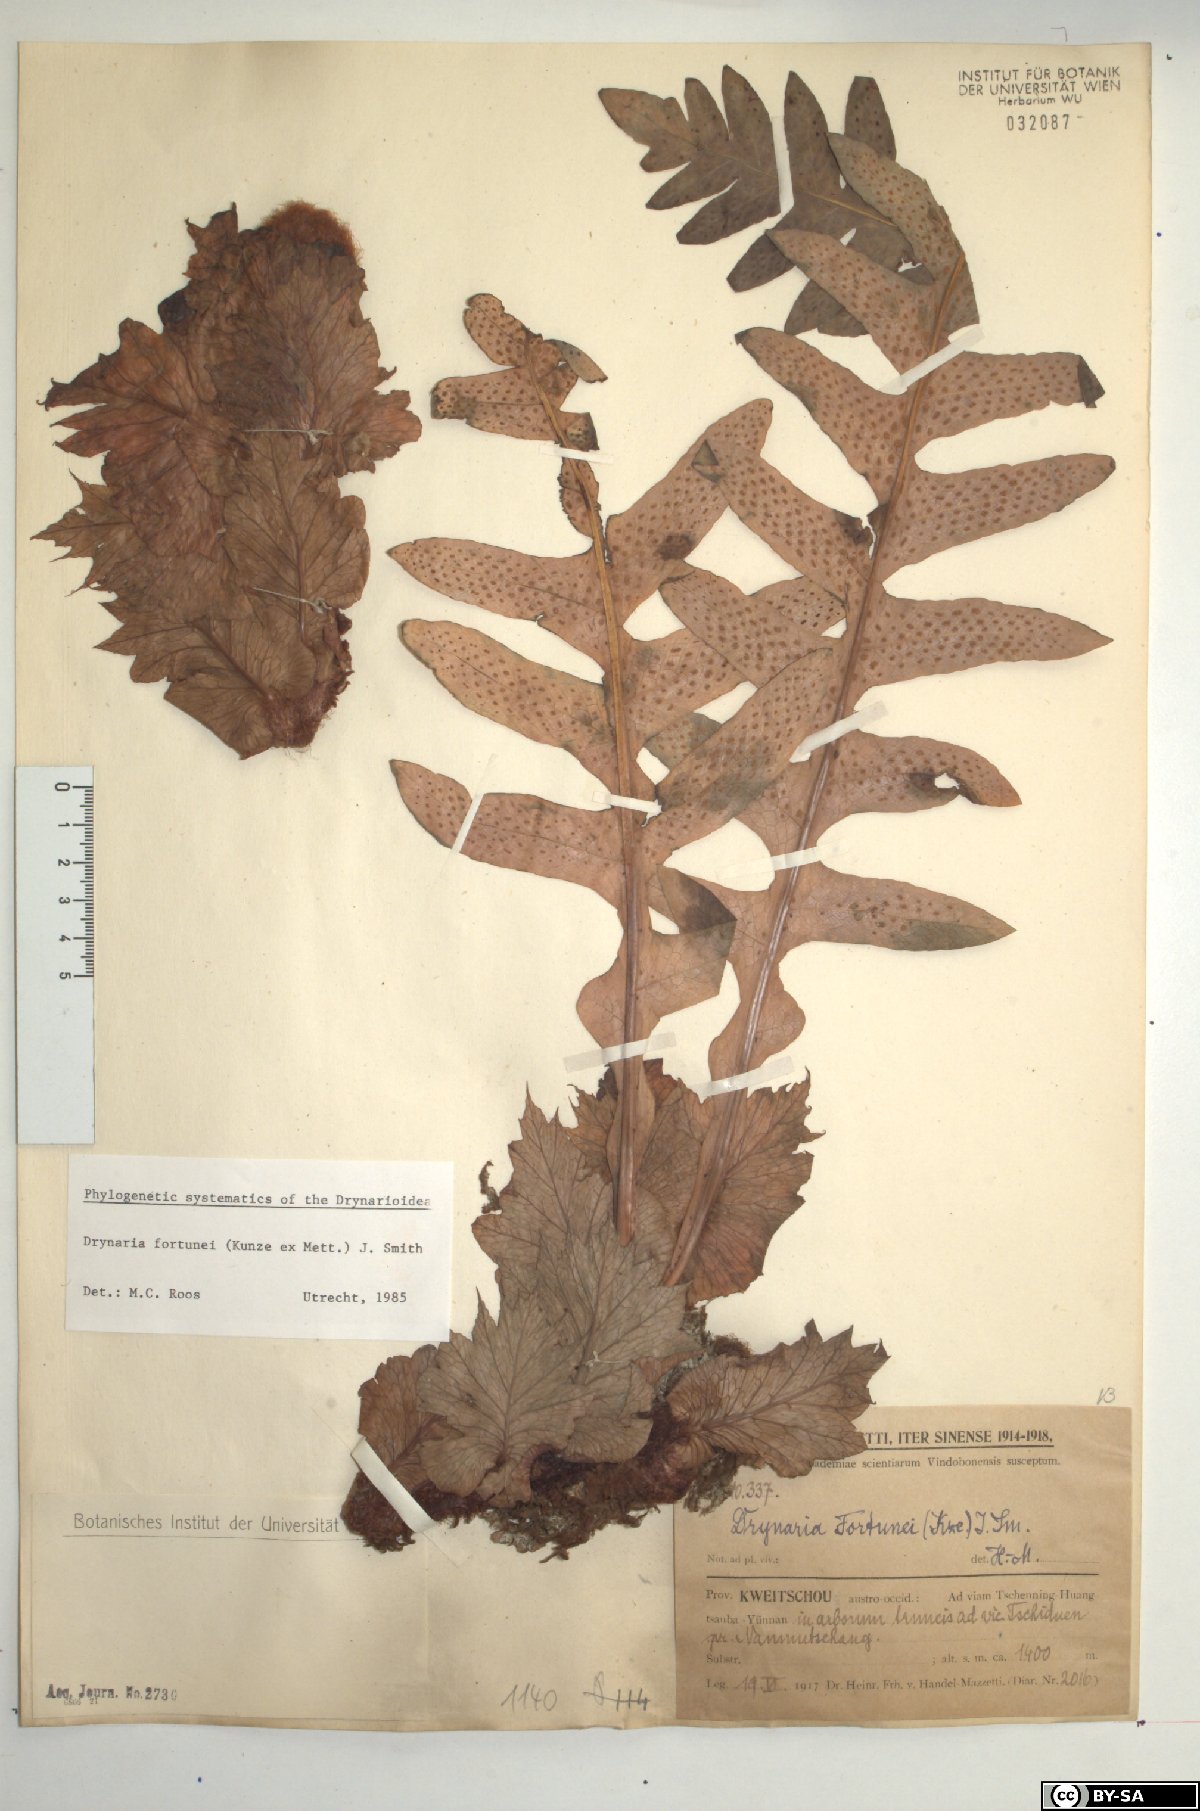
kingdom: Plantae
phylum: Tracheophyta
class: Polypodiopsida
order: Polypodiales
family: Polypodiaceae
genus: Drynaria
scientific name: Drynaria roosii
